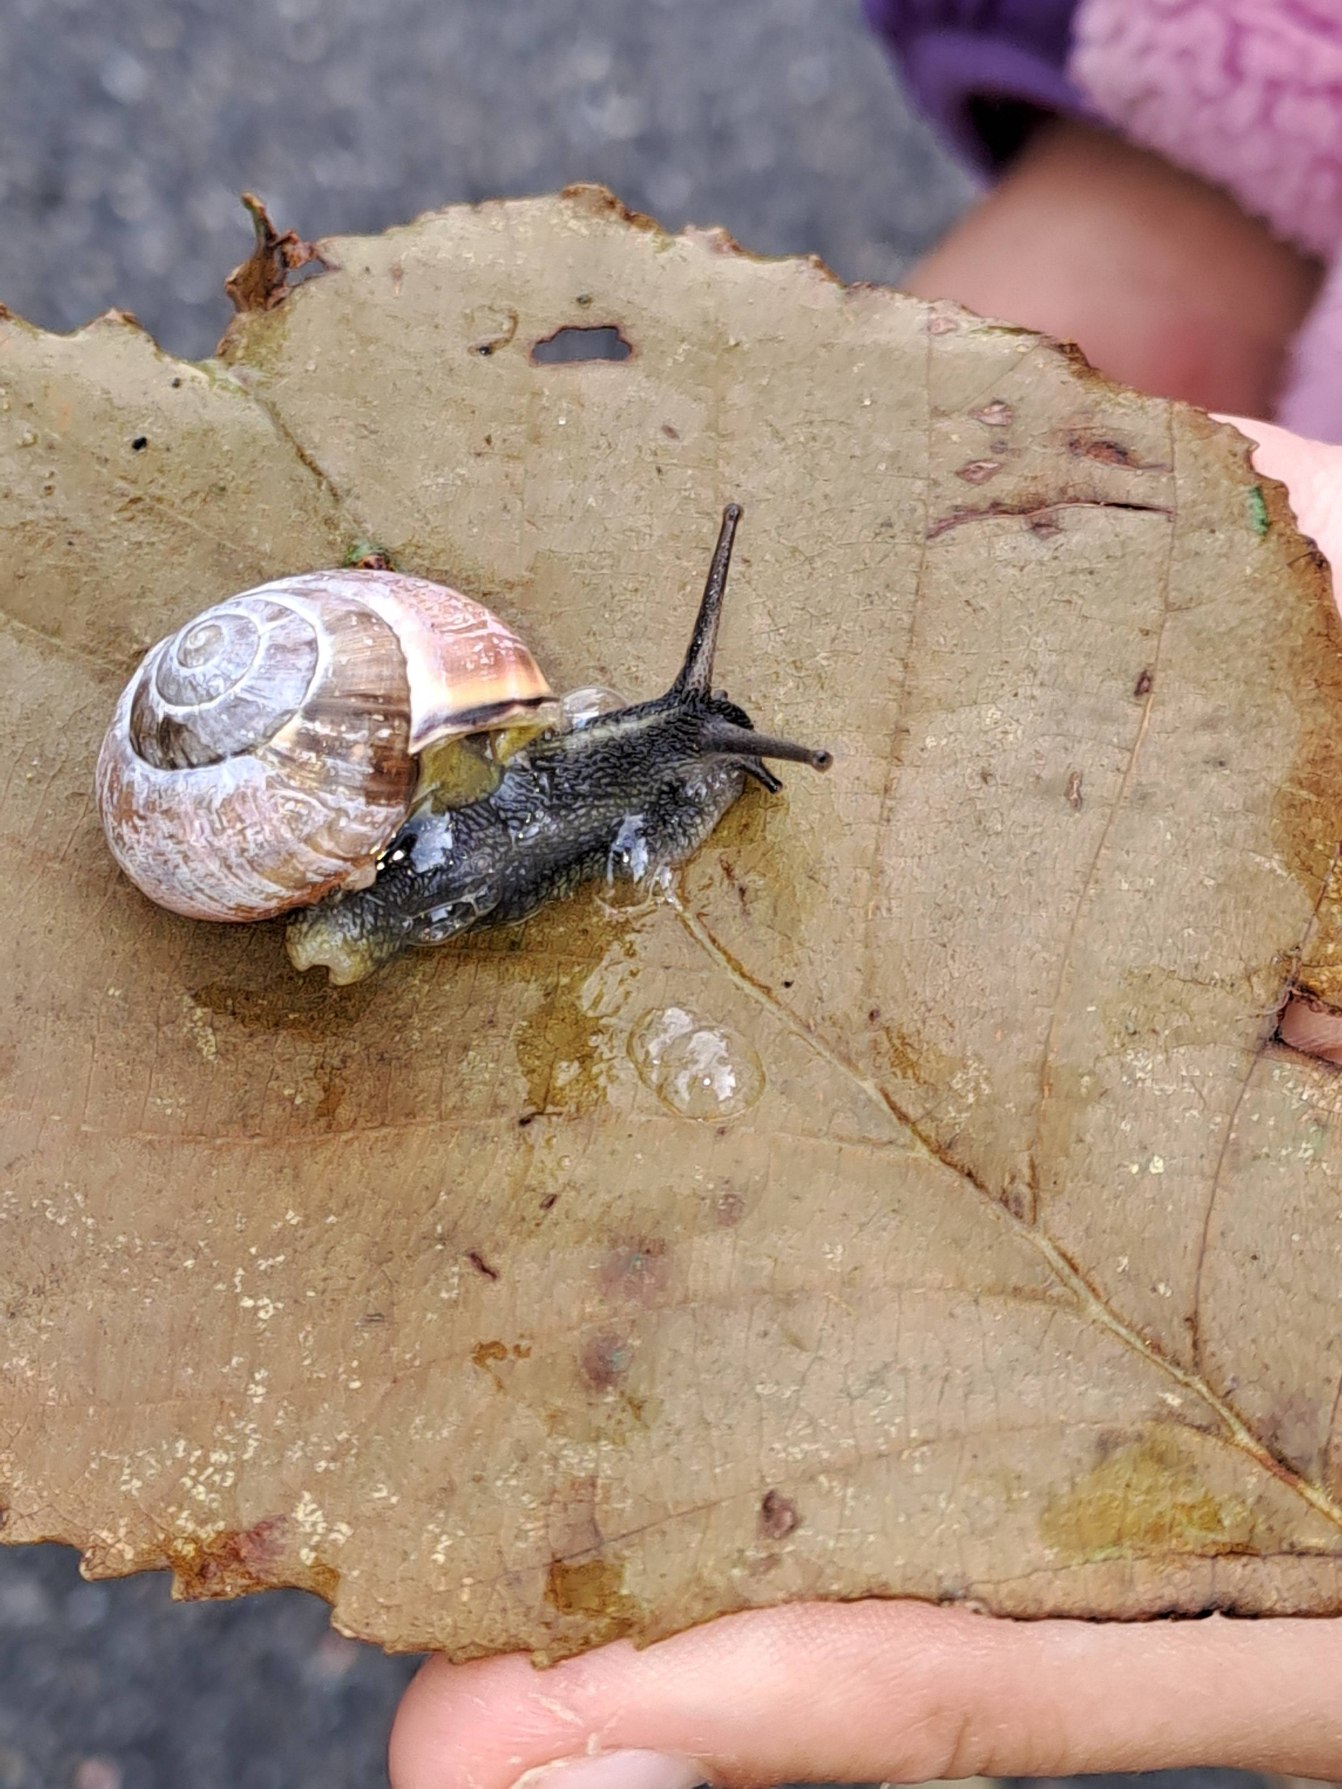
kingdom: Animalia
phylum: Mollusca
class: Gastropoda
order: Stylommatophora
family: Helicidae
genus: Cepaea
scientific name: Cepaea nemoralis
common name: Lundsnegl
